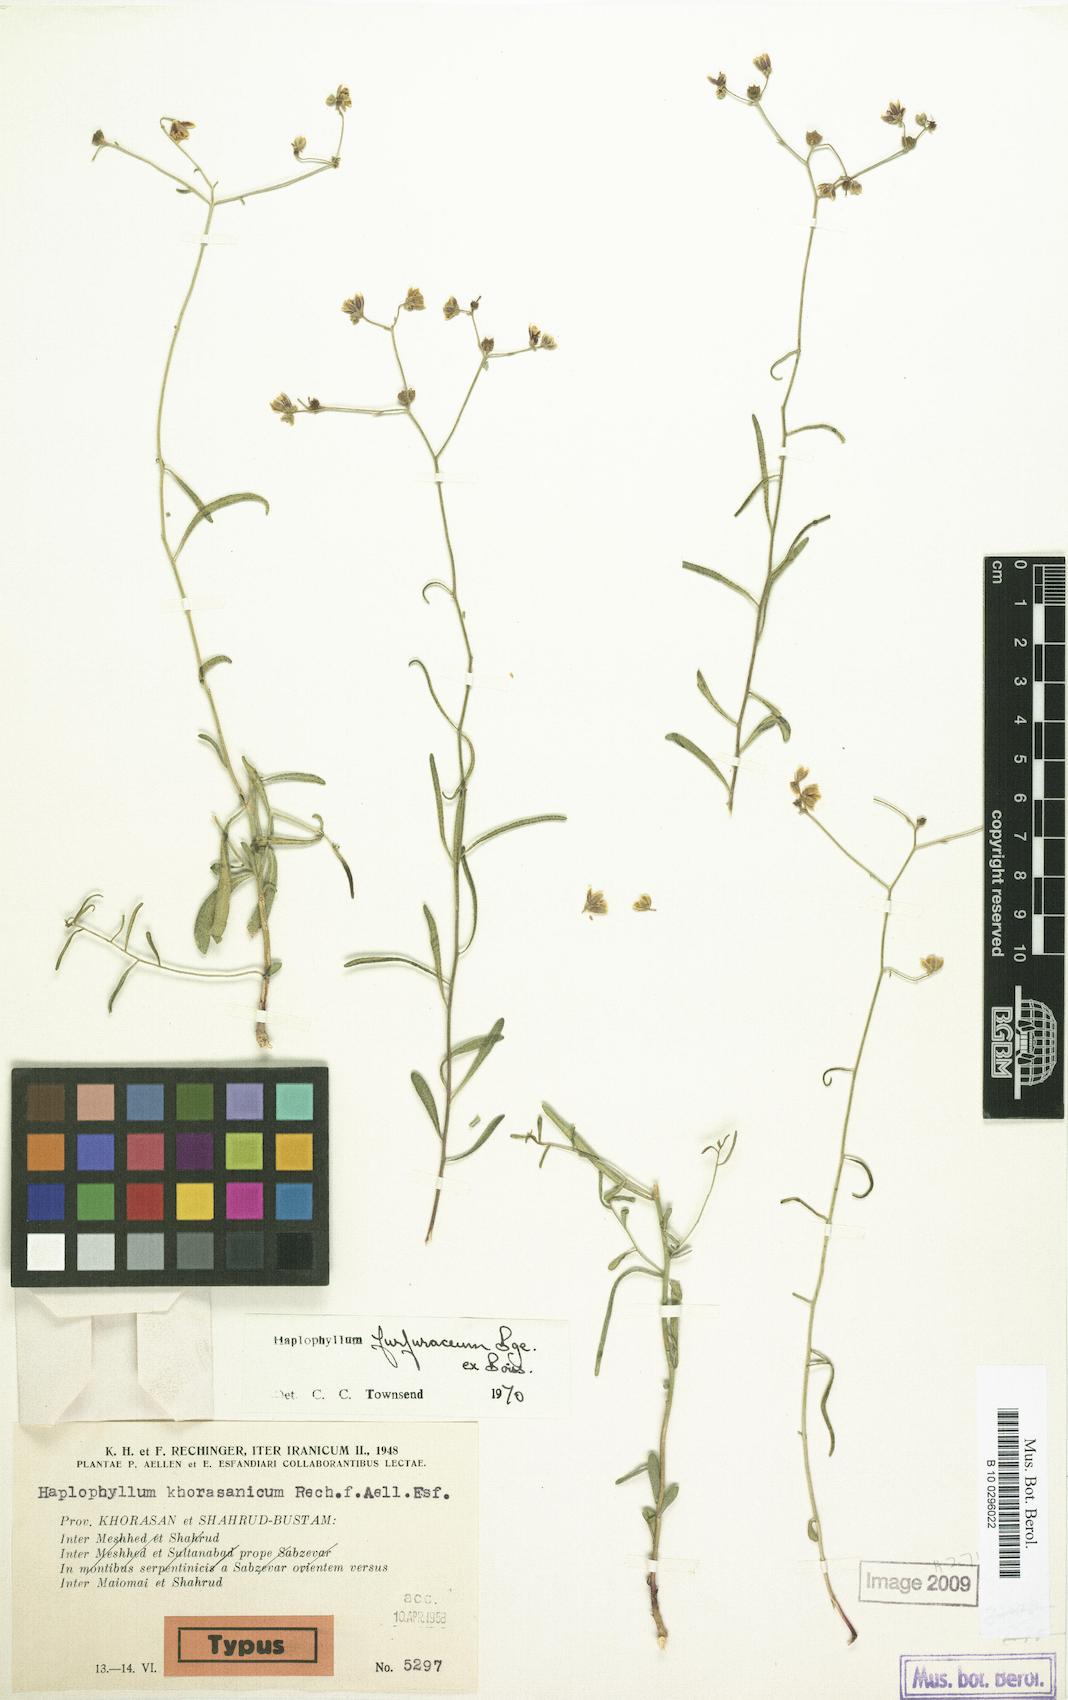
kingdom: Plantae
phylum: Tracheophyta
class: Magnoliopsida
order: Sapindales
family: Rutaceae
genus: Haplophyllum
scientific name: Haplophyllum furfuraceum
